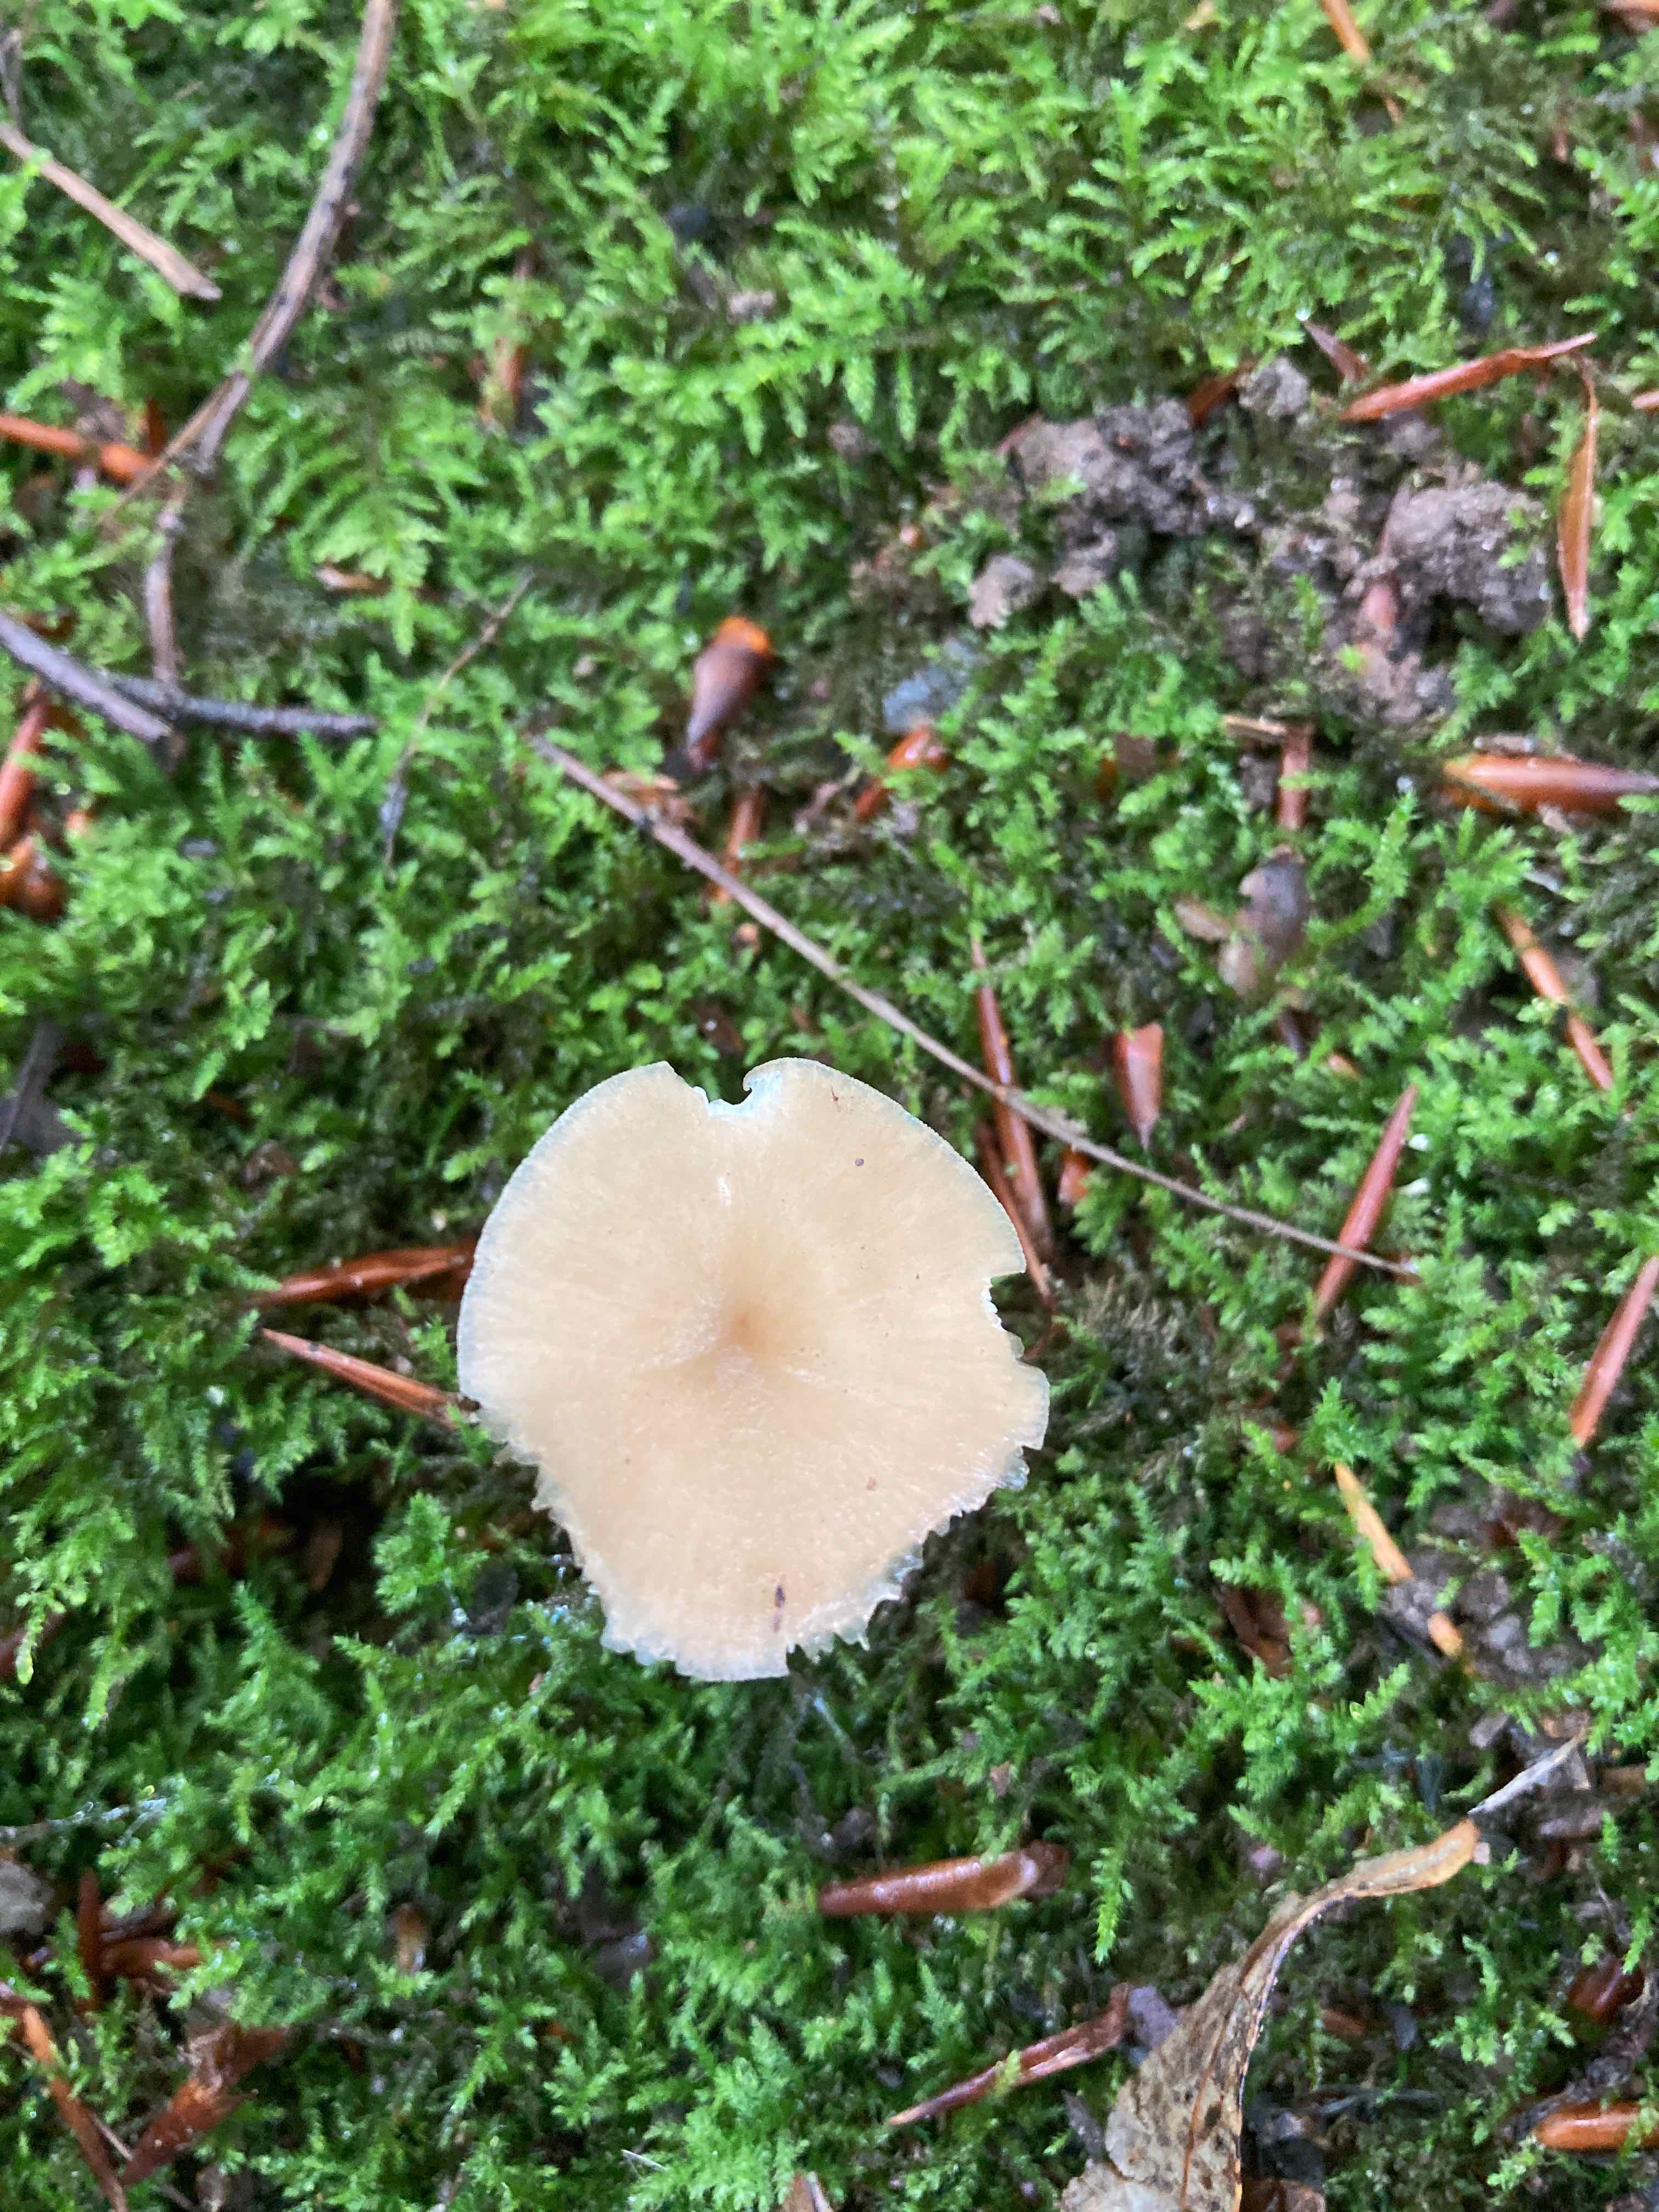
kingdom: Fungi
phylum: Basidiomycota
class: Agaricomycetes
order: Agaricales
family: Porotheleaceae
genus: Hydropodia
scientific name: Hydropodia subalpina
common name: vår-fnugfod
